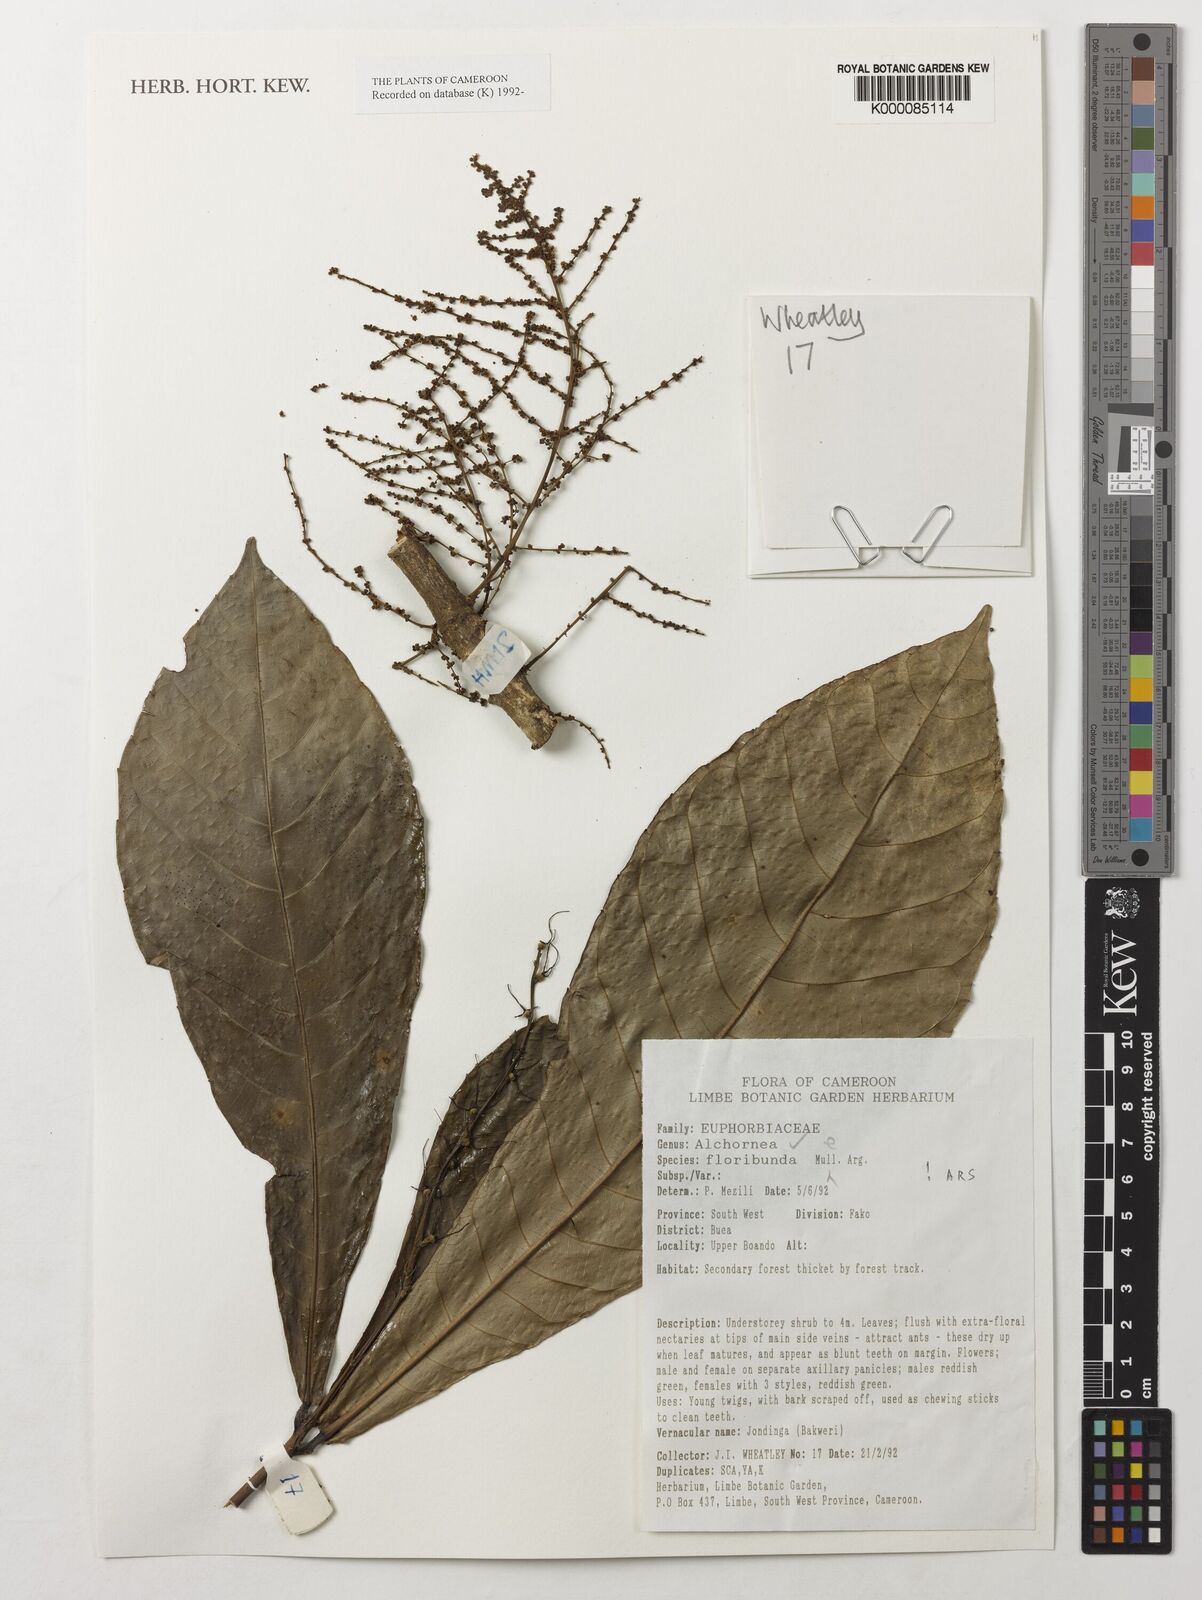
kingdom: Plantae
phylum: Tracheophyta
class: Magnoliopsida
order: Malpighiales
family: Euphorbiaceae
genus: Alchornea
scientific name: Alchornea
